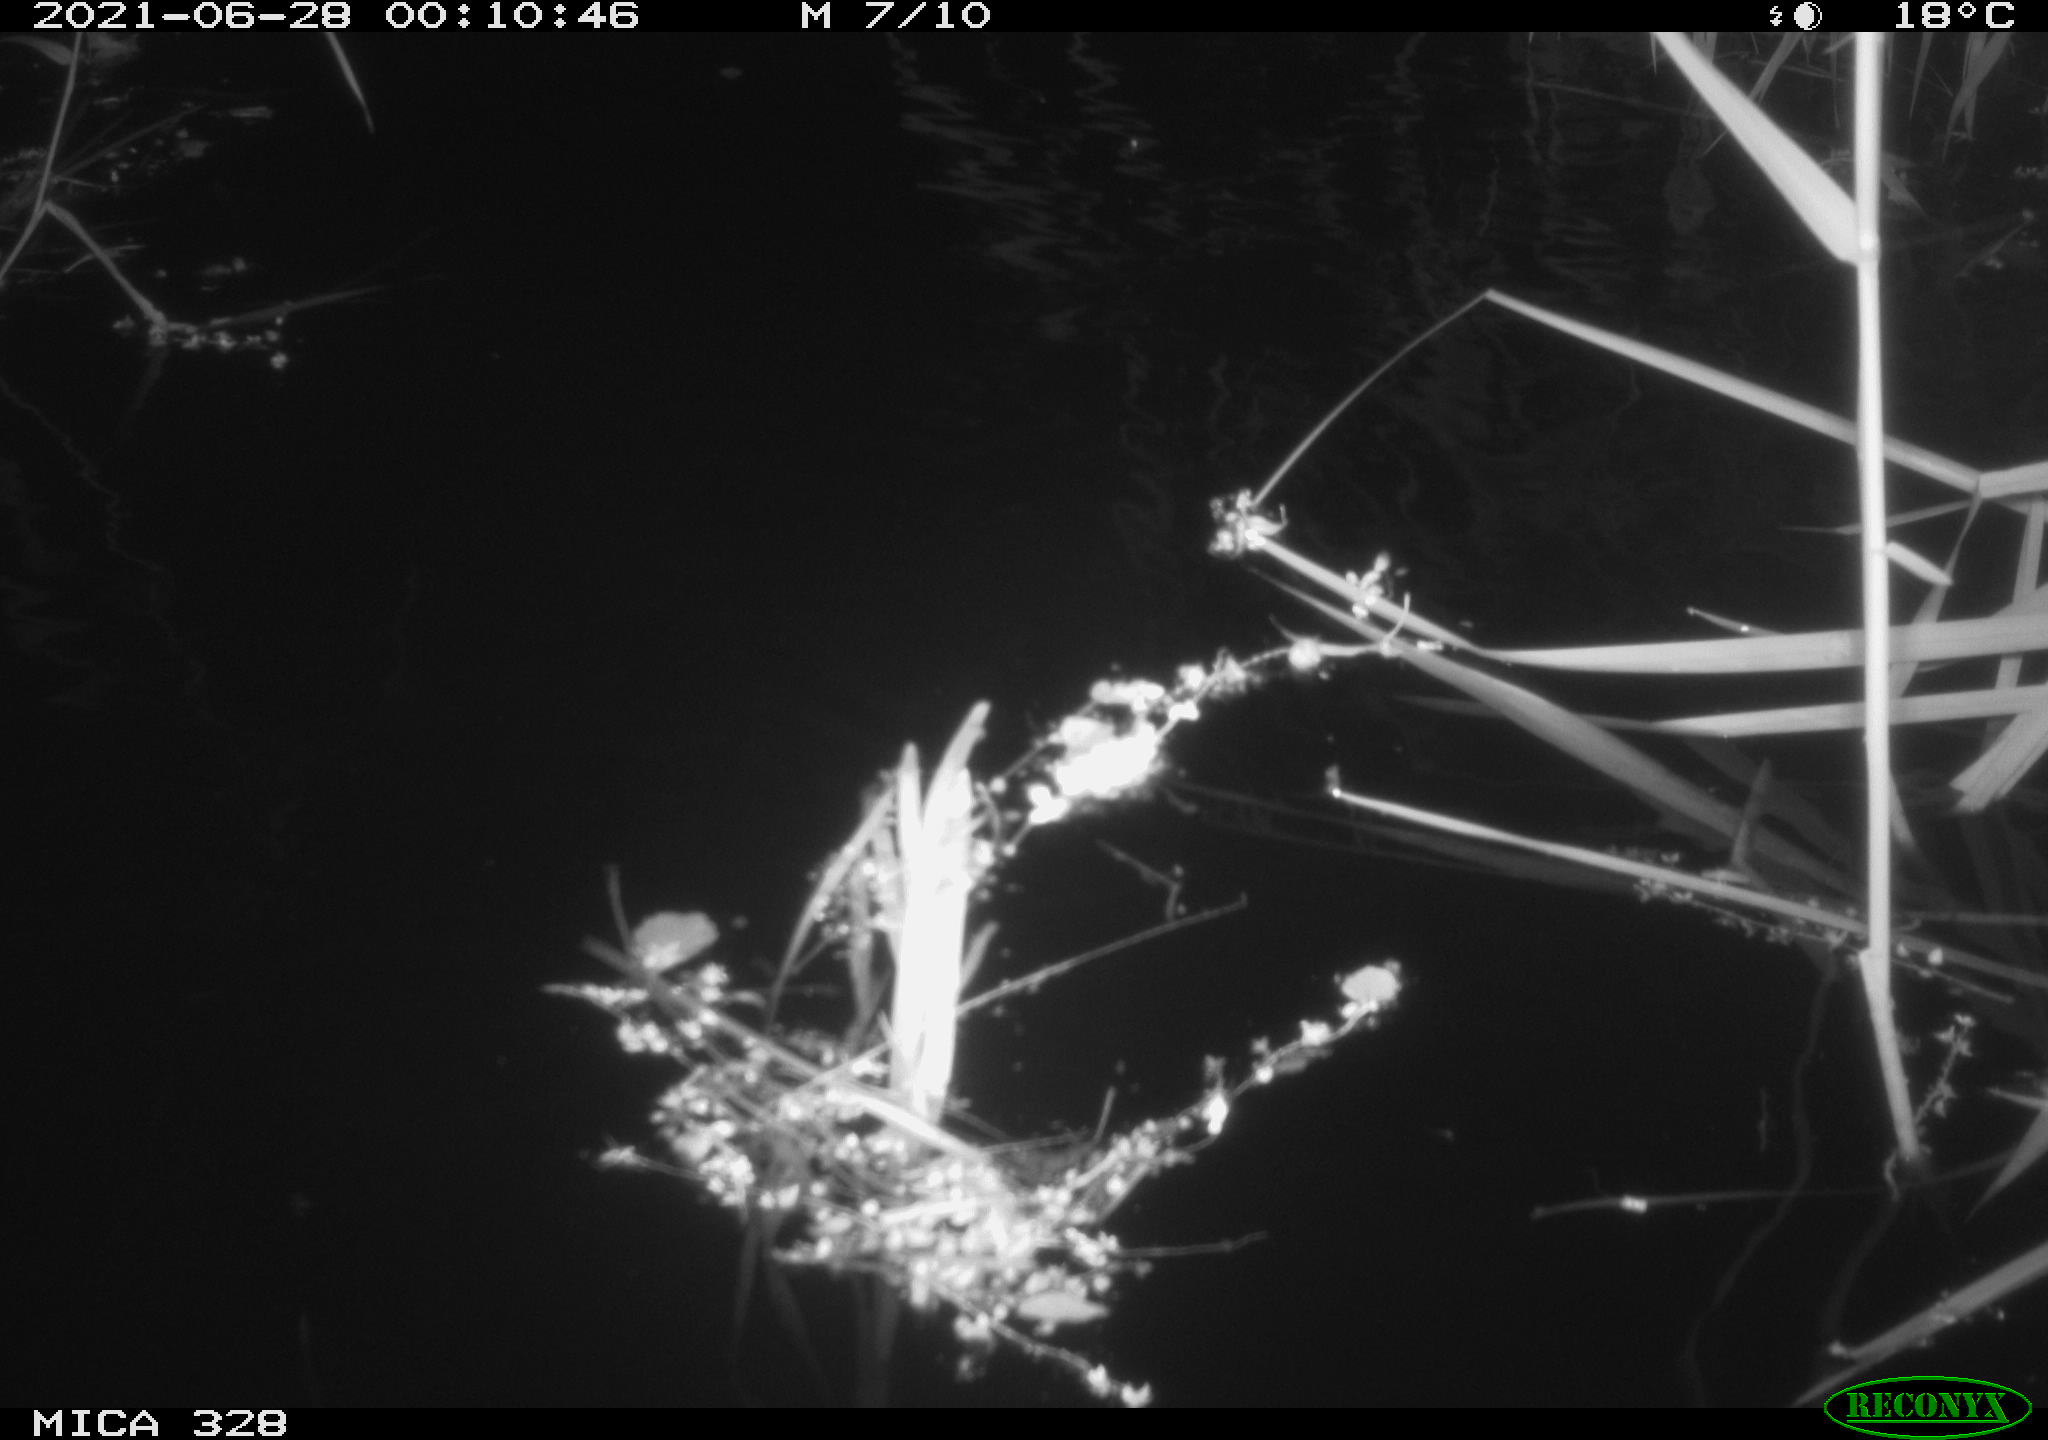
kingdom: Animalia
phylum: Chordata
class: Mammalia
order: Rodentia
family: Cricetidae
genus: Ondatra
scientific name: Ondatra zibethicus
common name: Muskrat
